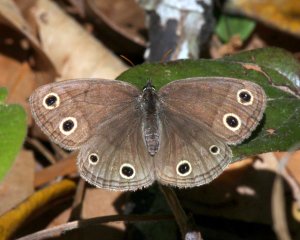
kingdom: Animalia
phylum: Arthropoda
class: Insecta
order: Lepidoptera
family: Nymphalidae
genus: Euptychia
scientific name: Euptychia cymela
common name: Little Wood Satyr
